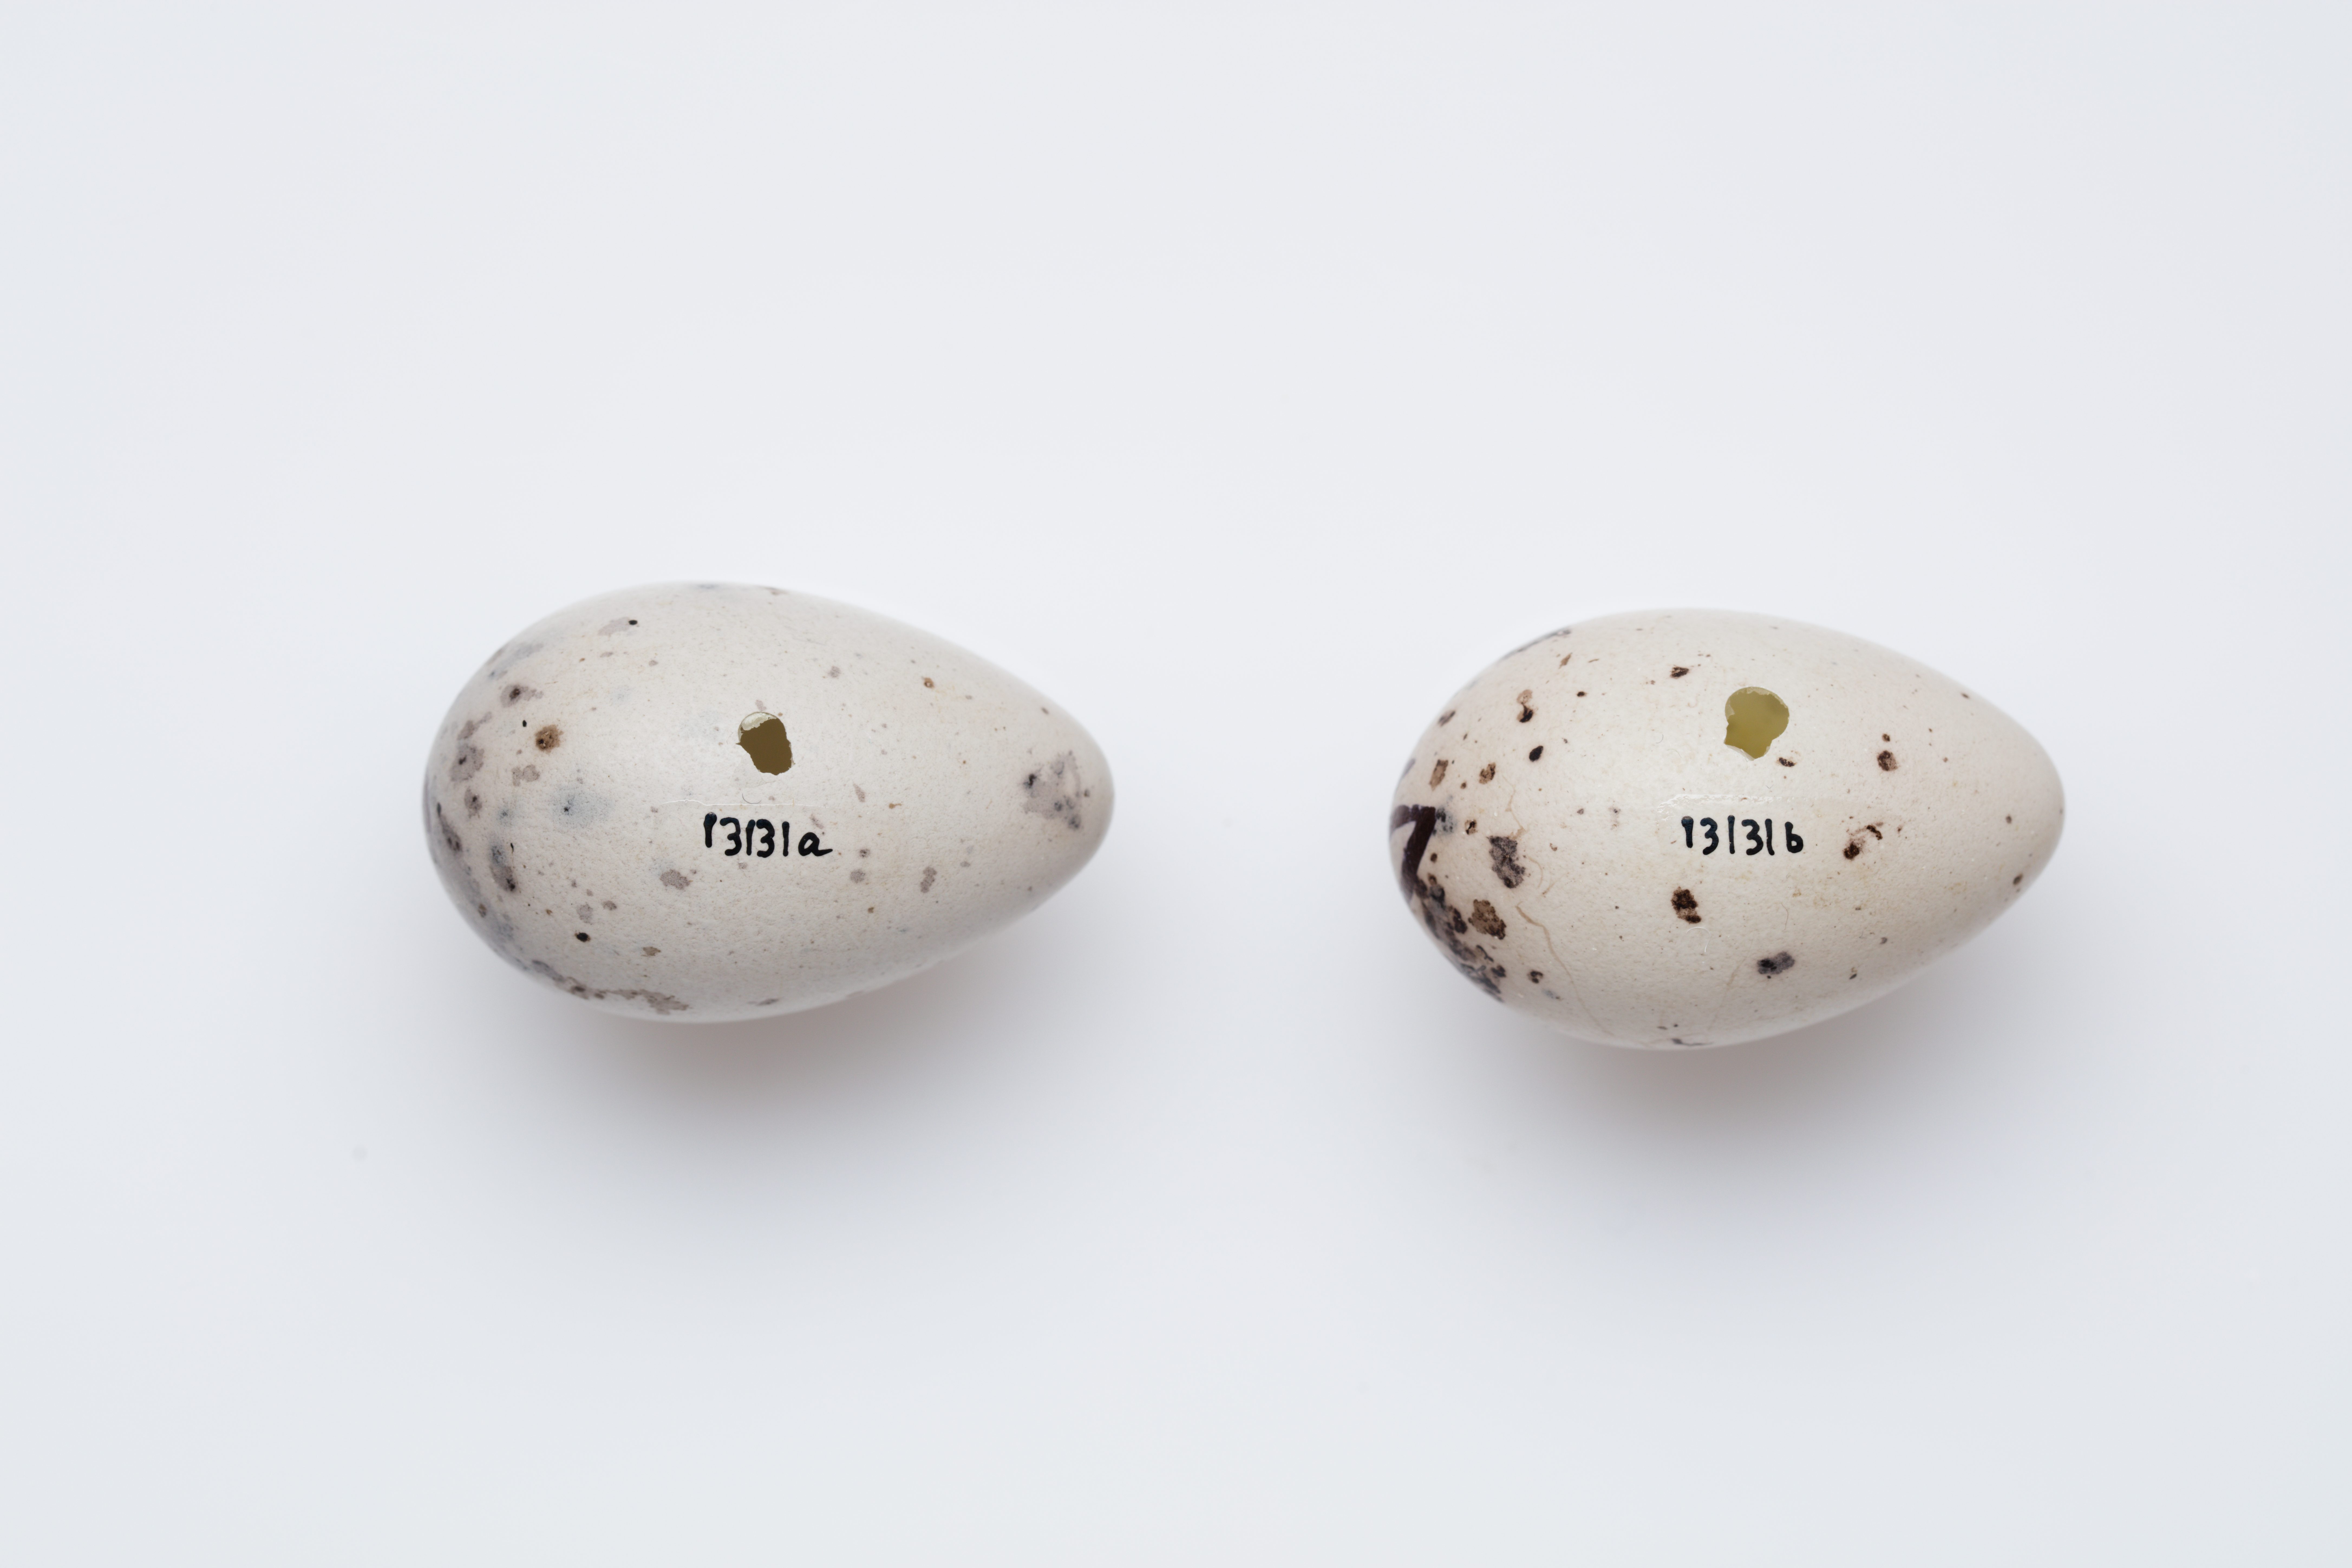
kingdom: Animalia
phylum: Chordata
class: Aves
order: Passeriformes
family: Callaeatidae
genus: Callaeas
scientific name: Callaeas cinereus
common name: South island kokako
